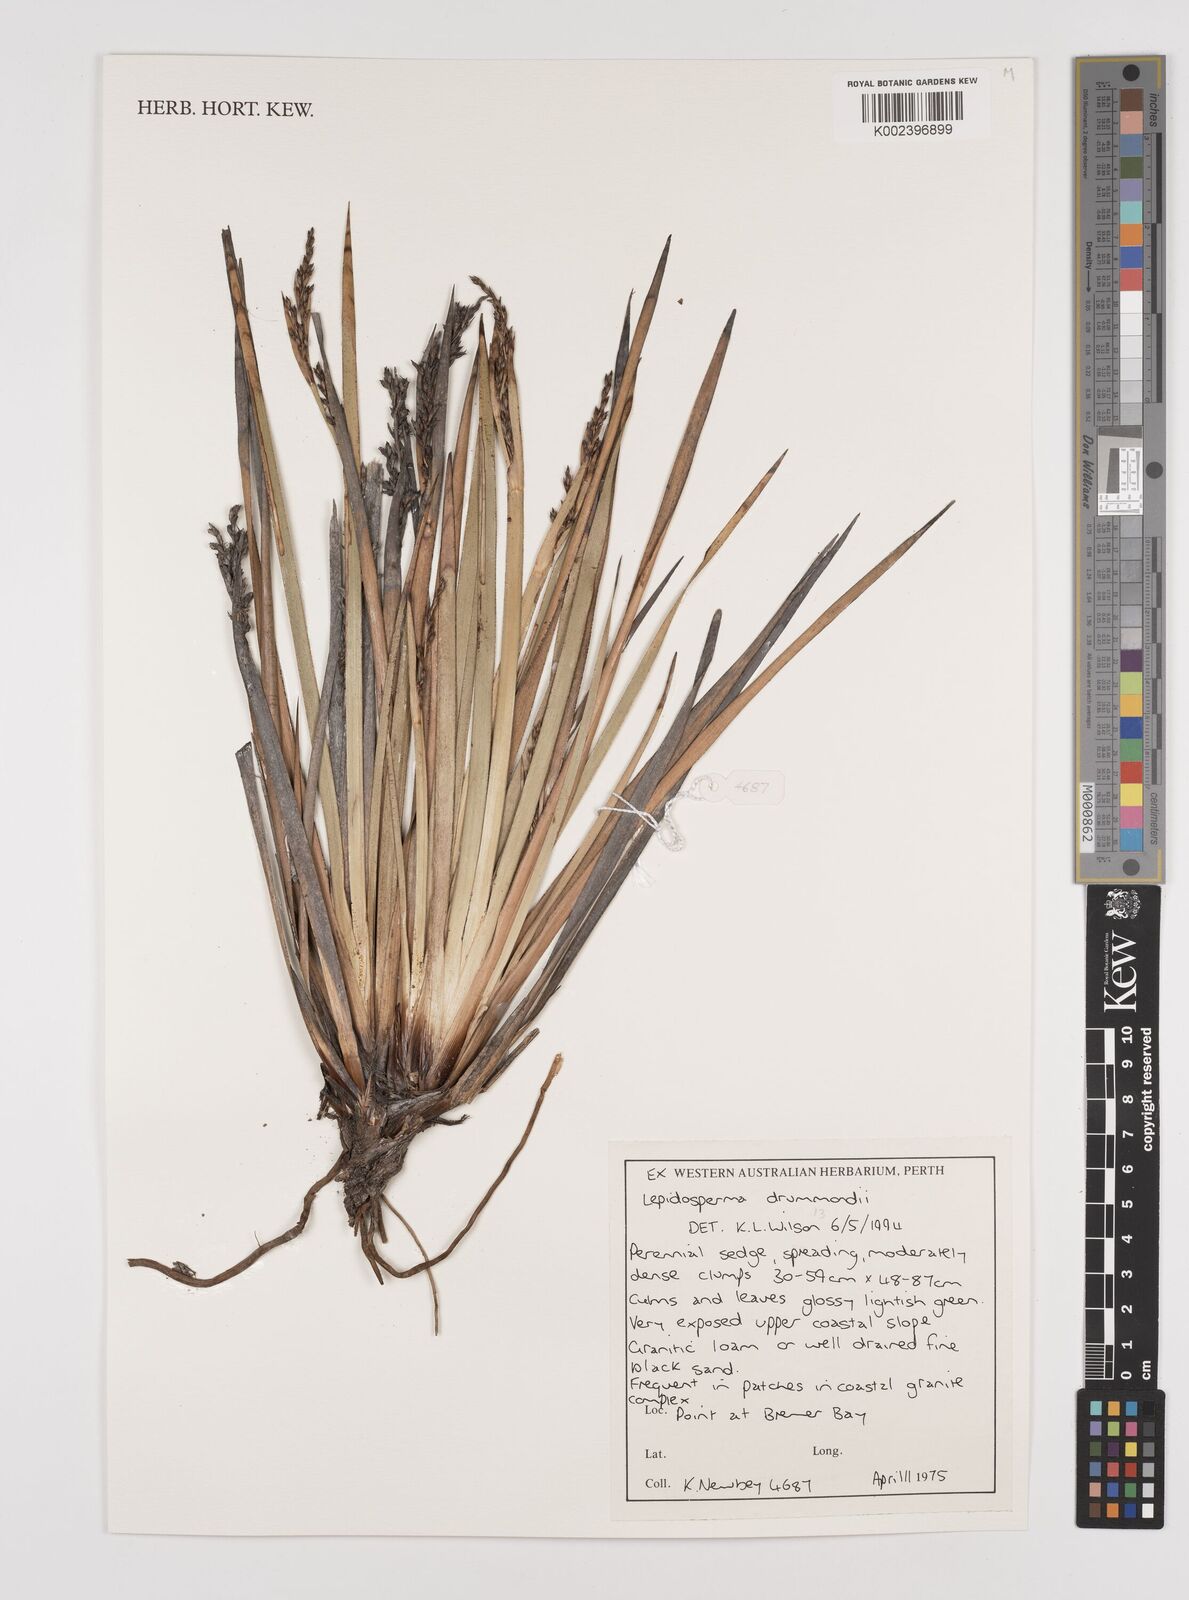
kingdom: Plantae
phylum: Tracheophyta
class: Liliopsida
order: Poales
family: Cyperaceae
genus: Lepidosperma
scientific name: Lepidosperma drummondii
